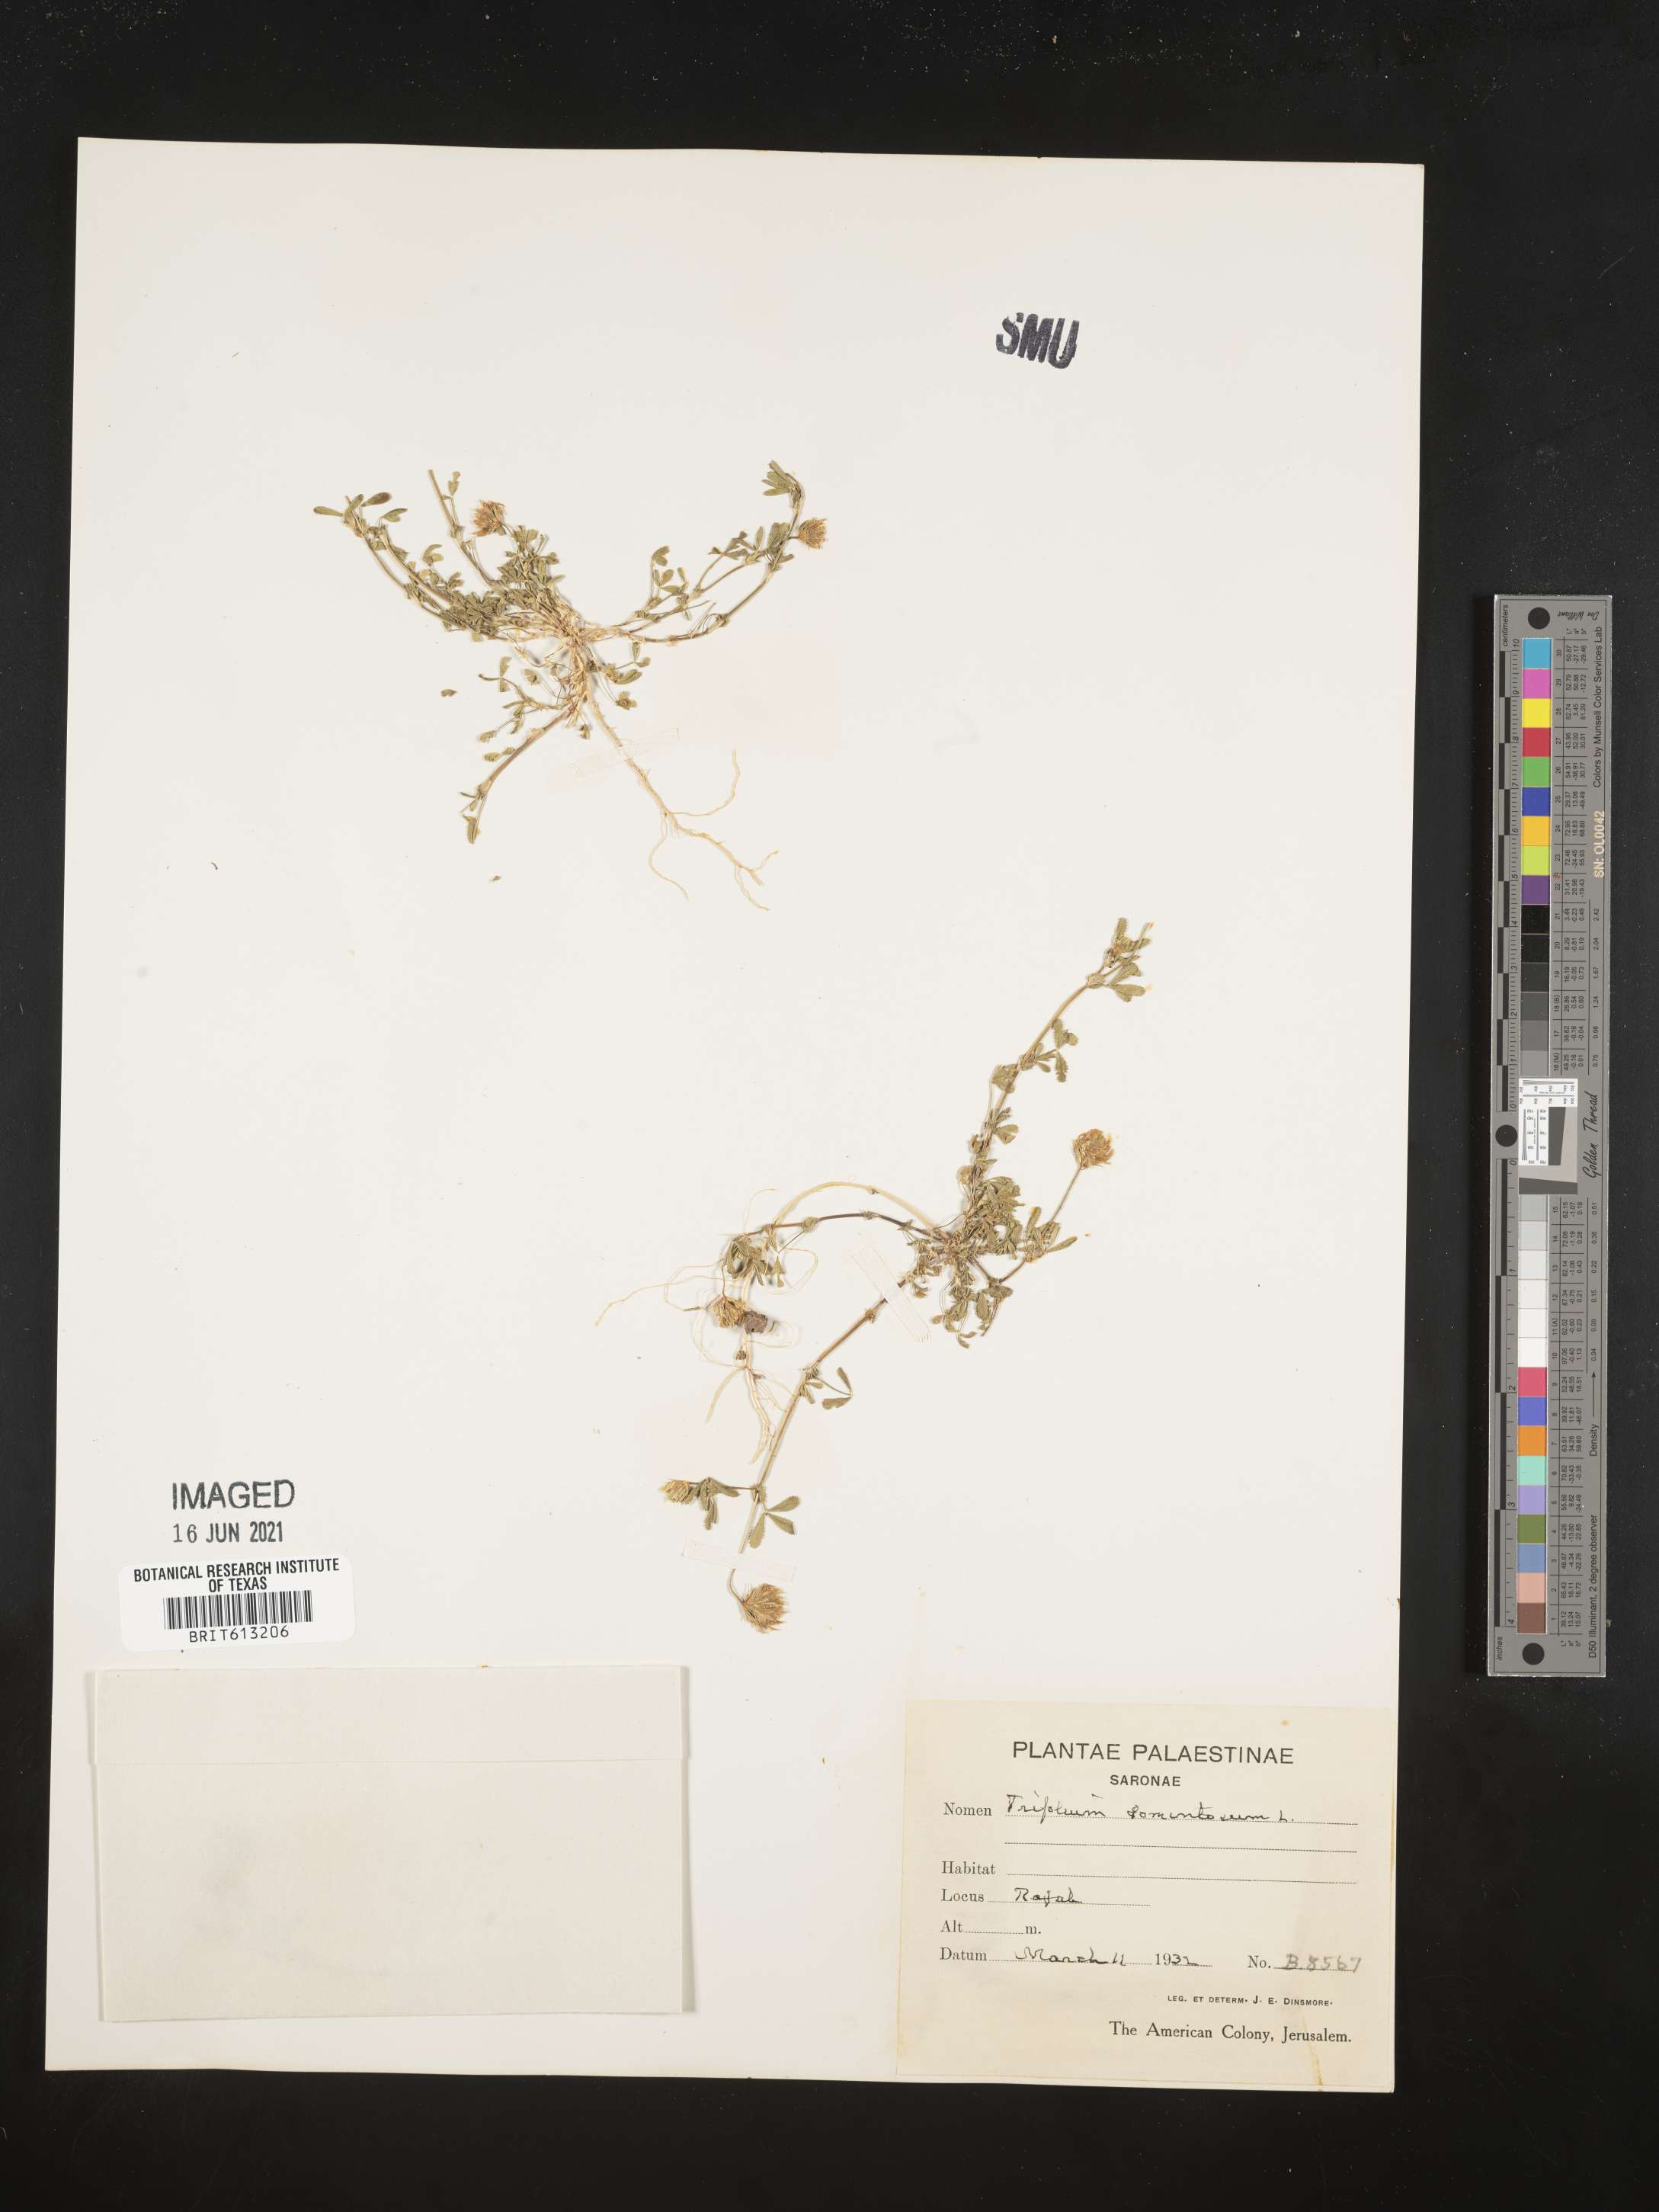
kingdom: Plantae
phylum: Tracheophyta
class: Magnoliopsida
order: Fabales
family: Fabaceae
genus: Trifolium
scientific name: Trifolium tomentosum
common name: Woolly clover
